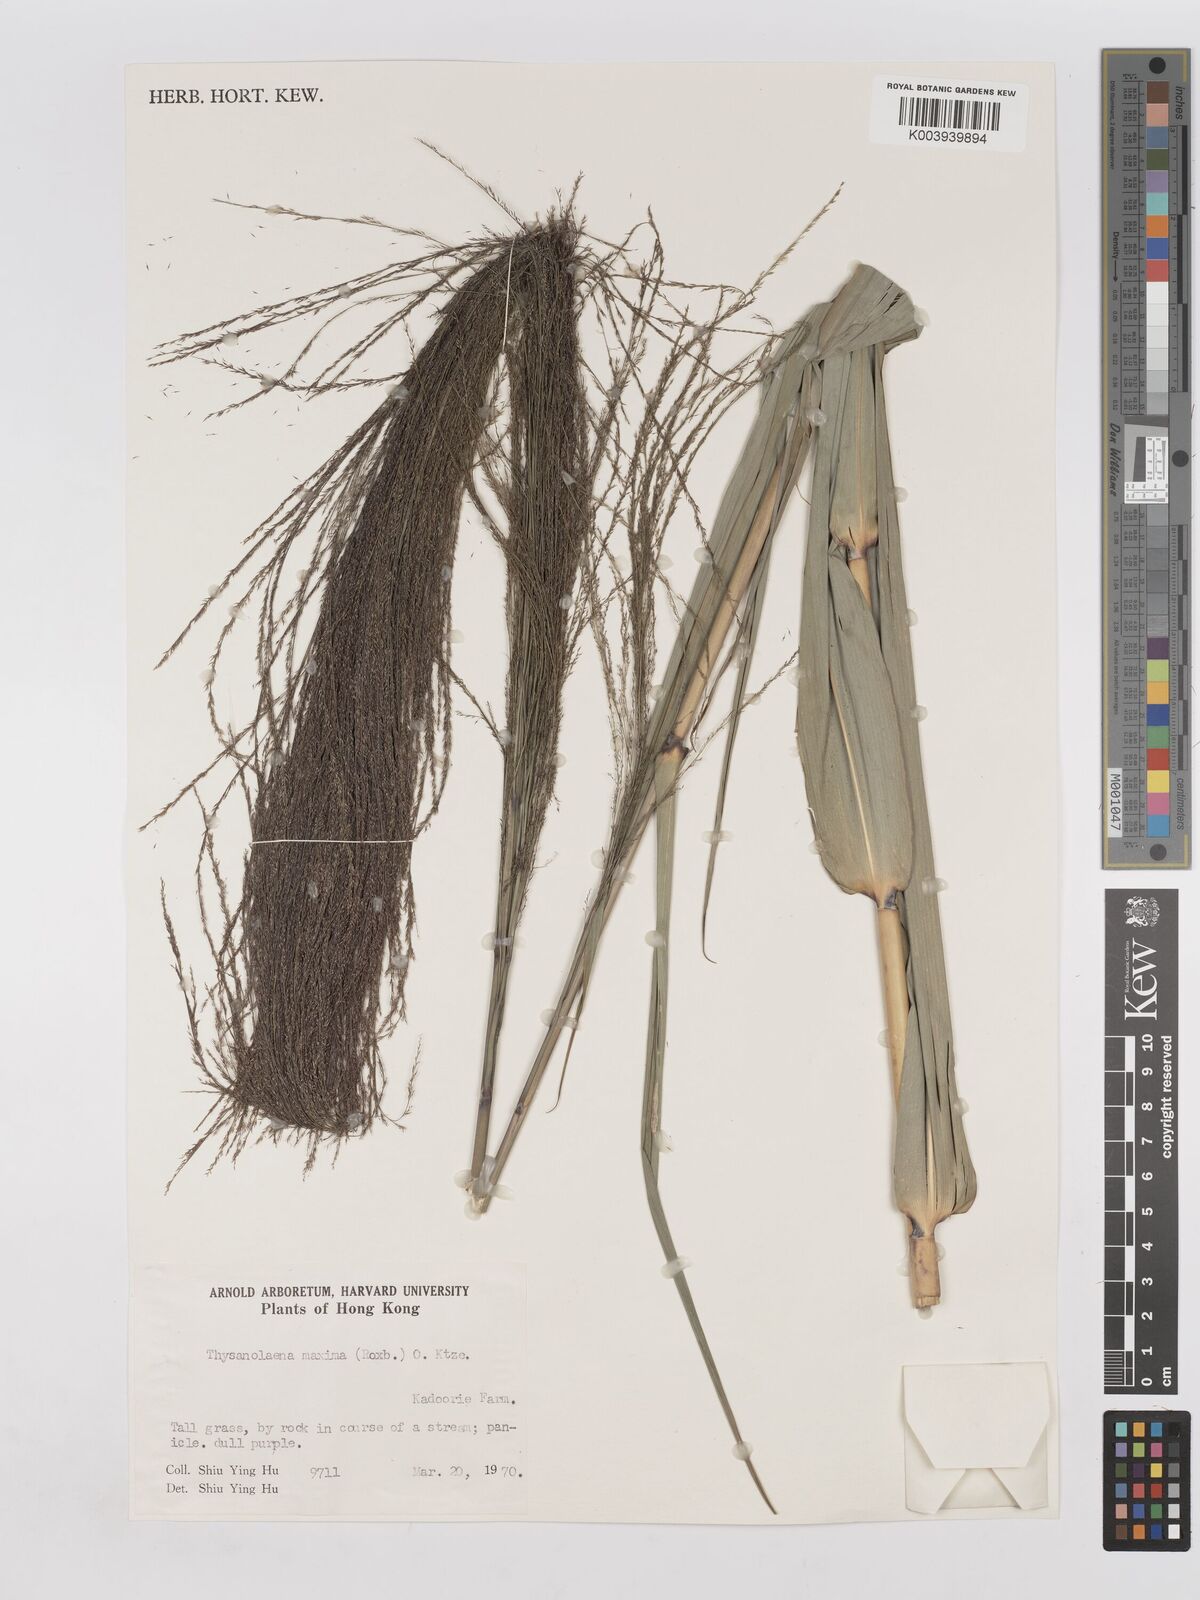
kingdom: Plantae
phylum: Tracheophyta
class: Liliopsida
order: Poales
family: Poaceae
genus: Thysanolaena
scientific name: Thysanolaena latifolia
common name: Tiger grass
